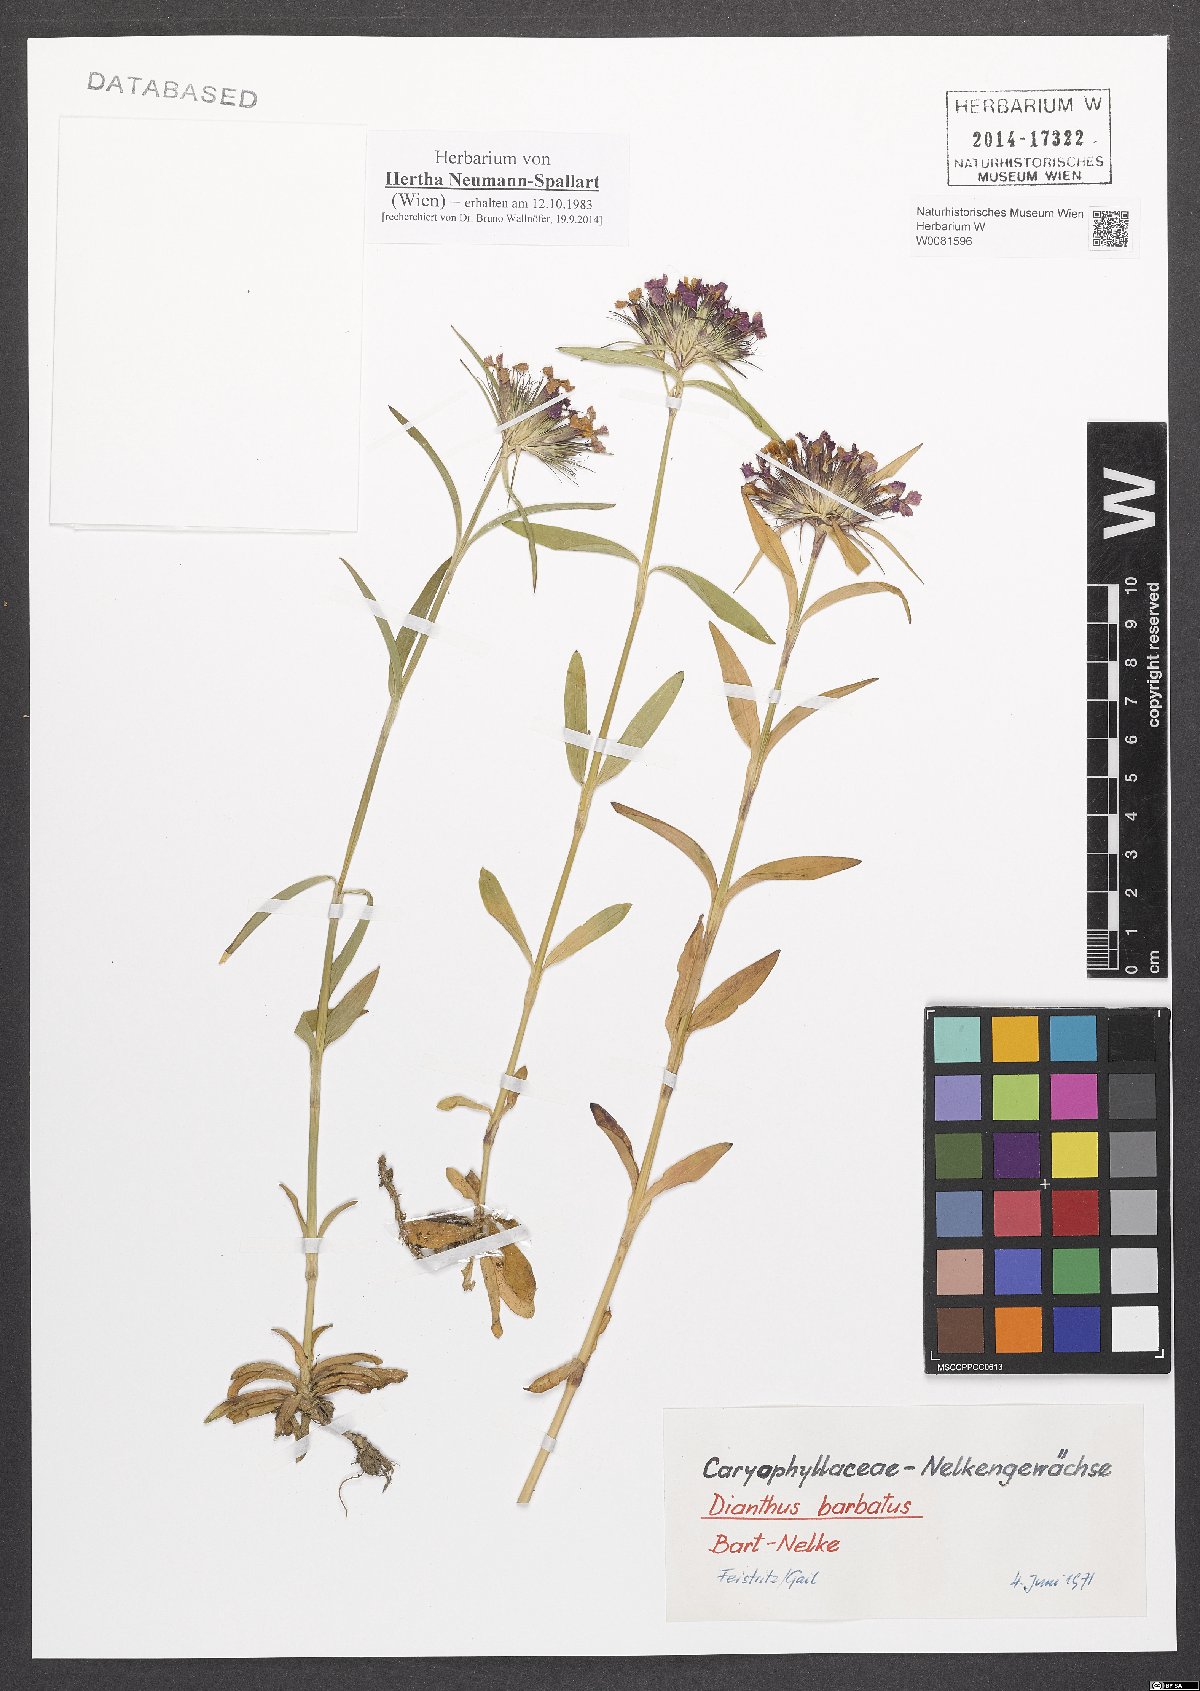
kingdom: Plantae
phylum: Tracheophyta
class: Magnoliopsida
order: Caryophyllales
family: Caryophyllaceae
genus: Dianthus
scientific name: Dianthus barbatus
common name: Sweet-william
